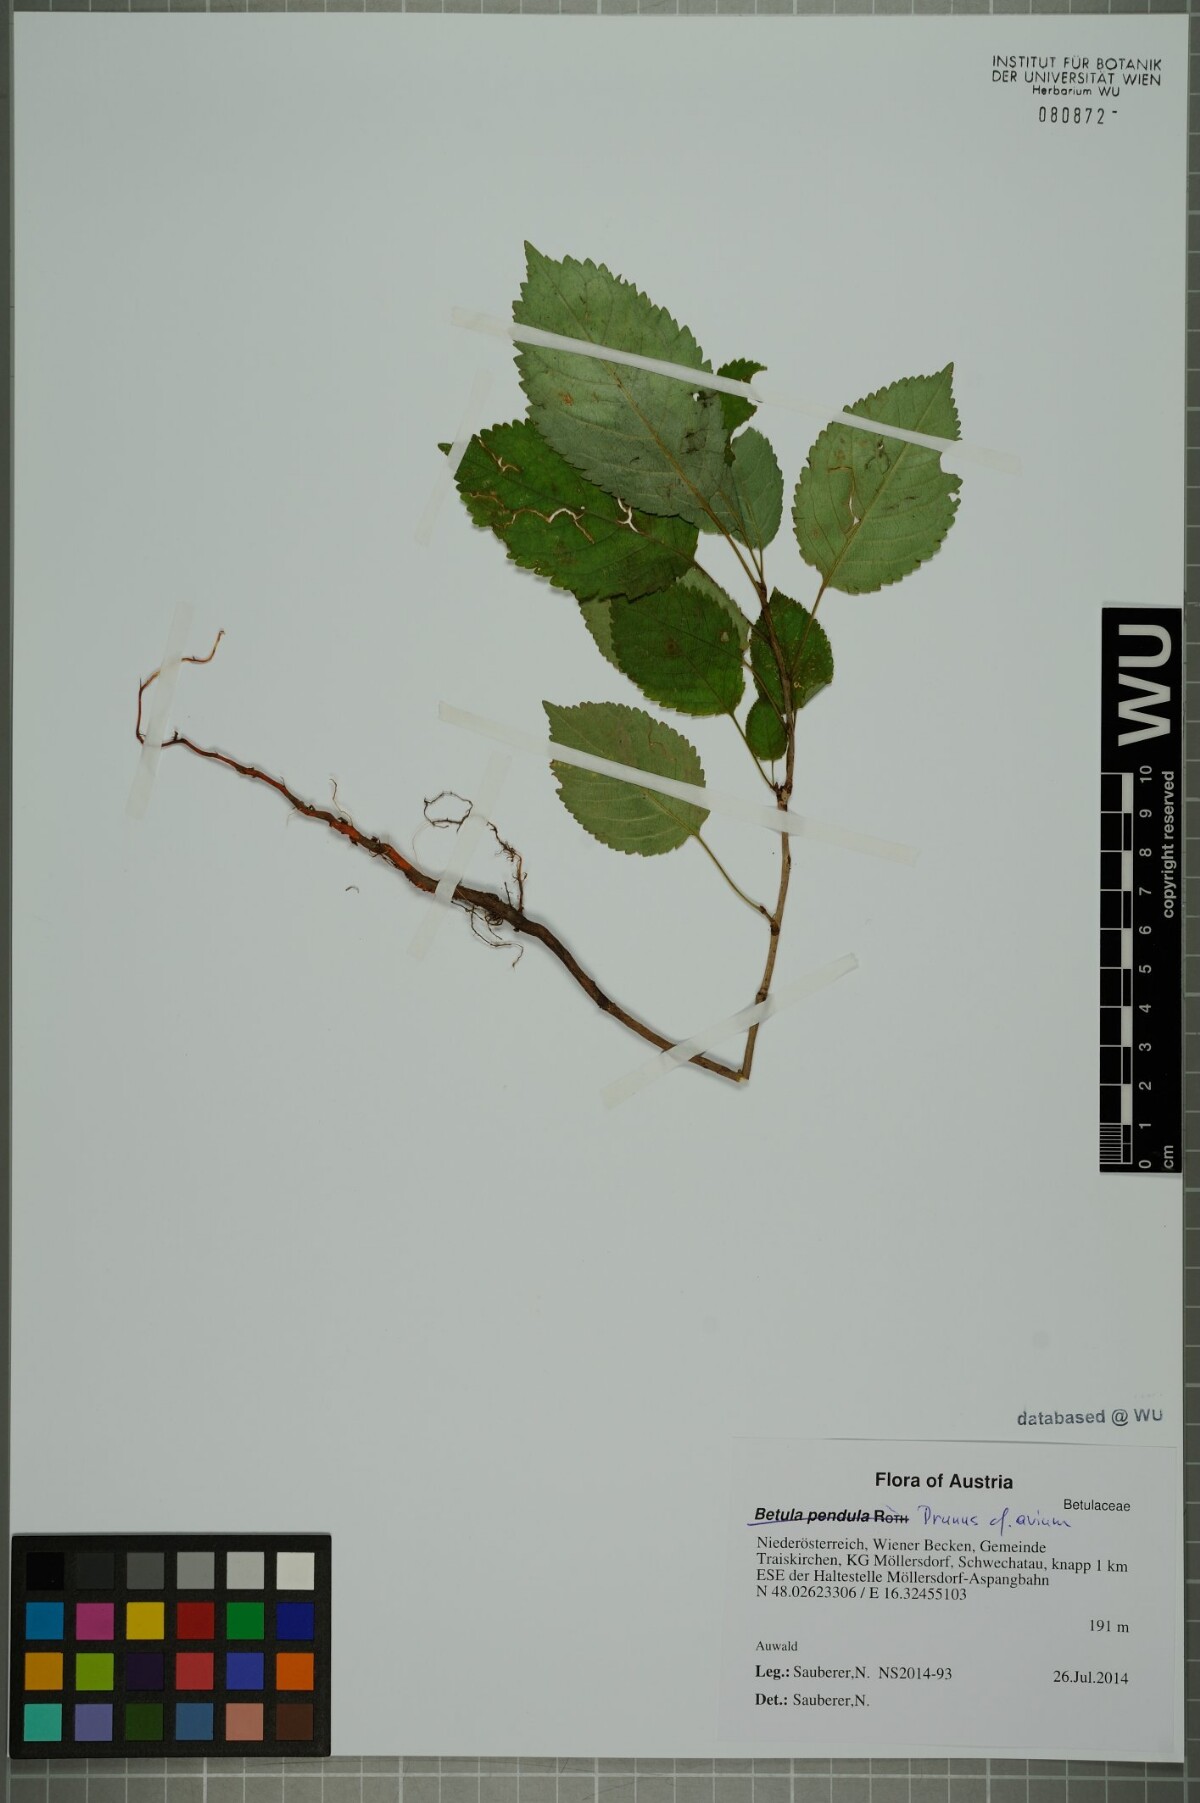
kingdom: Plantae
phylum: Tracheophyta
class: Magnoliopsida
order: Rosales
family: Rosaceae
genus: Prunus
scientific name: Prunus avium
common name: Sweet cherry
